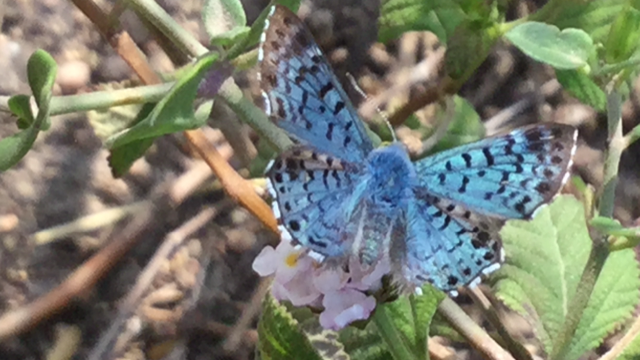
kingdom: Animalia
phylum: Arthropoda
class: Insecta
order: Lepidoptera
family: Riodinidae
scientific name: Riodinidae
